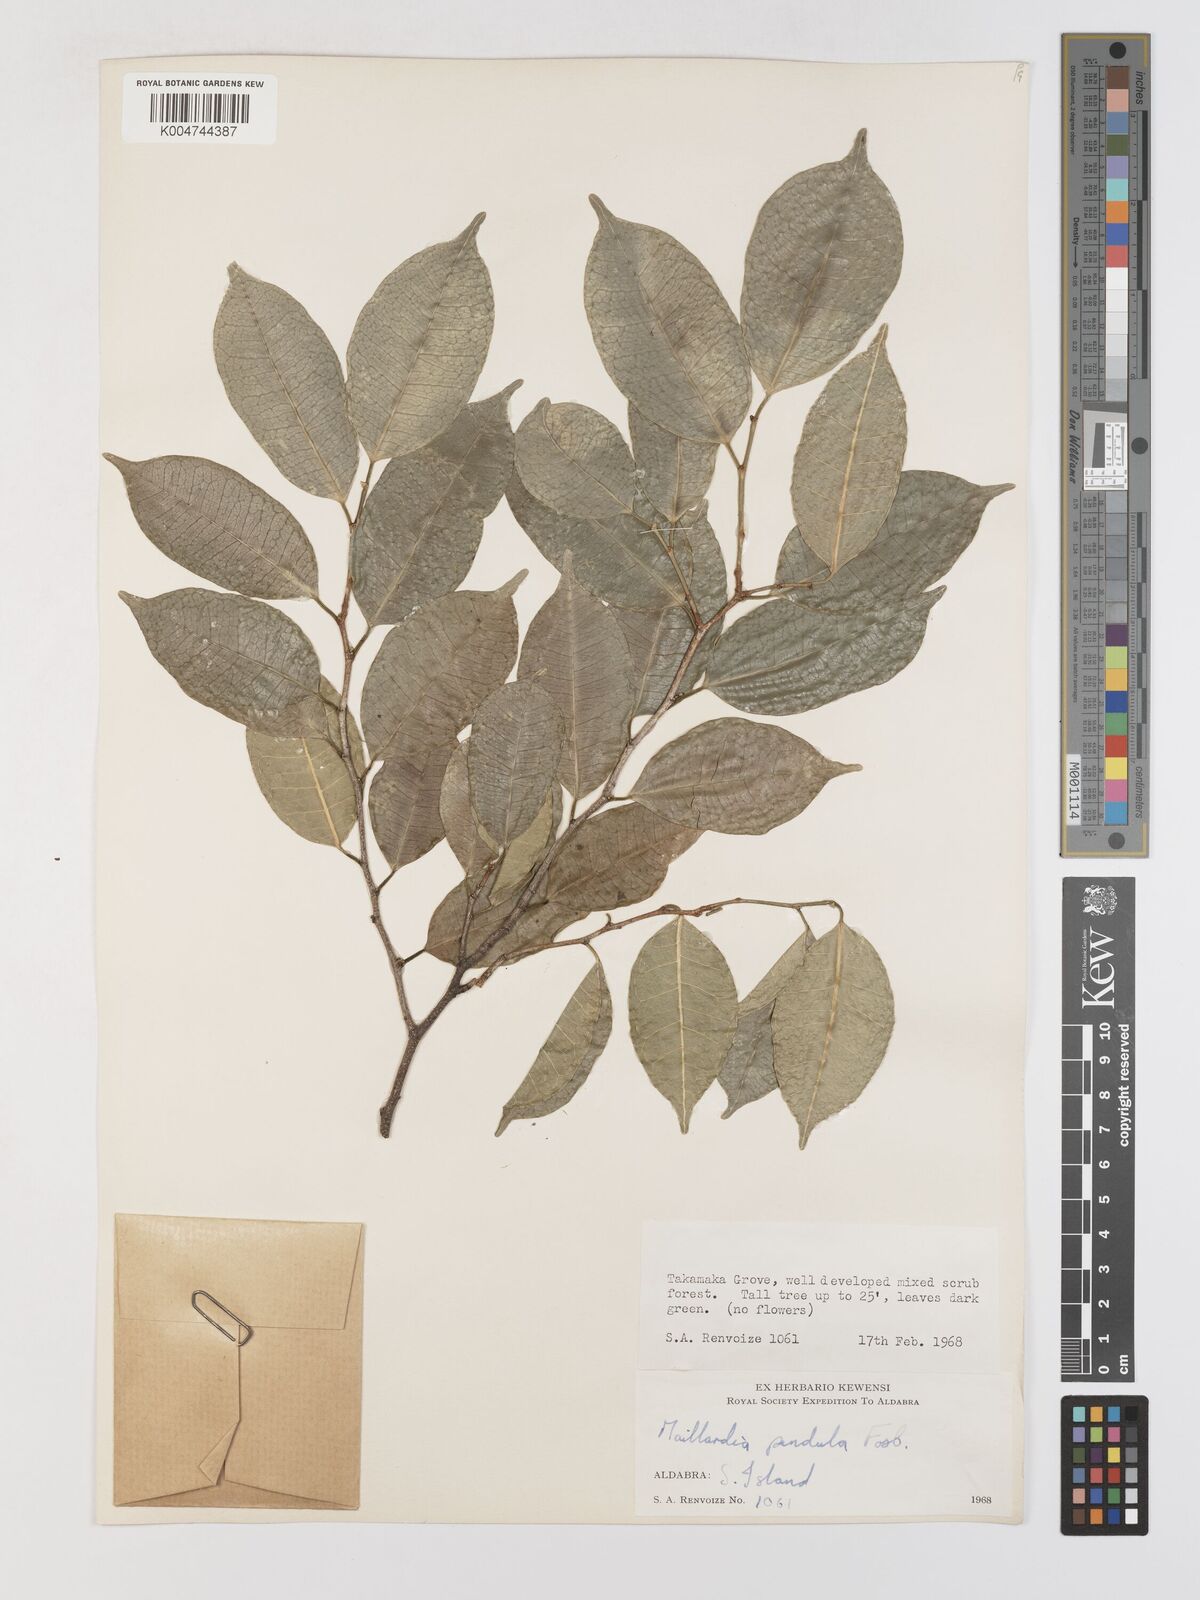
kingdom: Plantae
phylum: Tracheophyta
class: Magnoliopsida
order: Rosales
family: Moraceae
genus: Maillardia
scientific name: Maillardia montana
